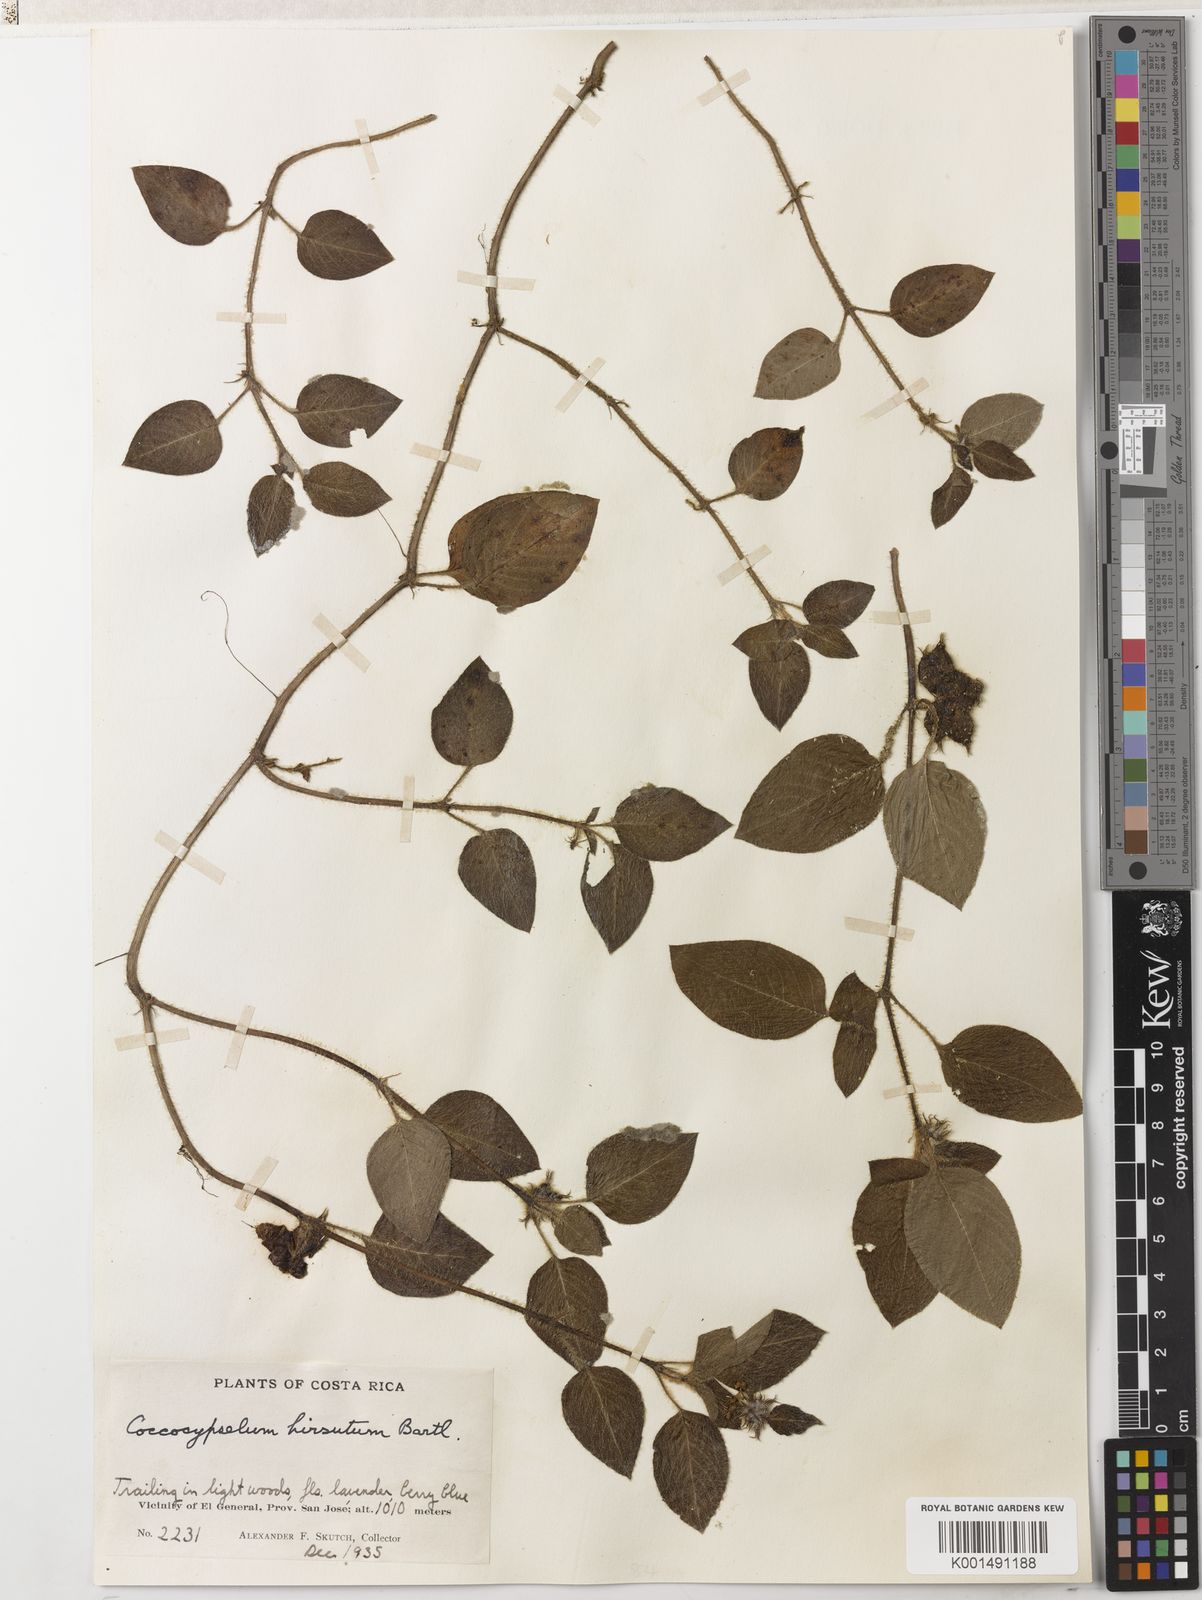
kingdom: Plantae
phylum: Tracheophyta
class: Magnoliopsida
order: Gentianales
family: Rubiaceae
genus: Coccocypselum
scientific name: Coccocypselum hirsutum
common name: Yerba de guava
